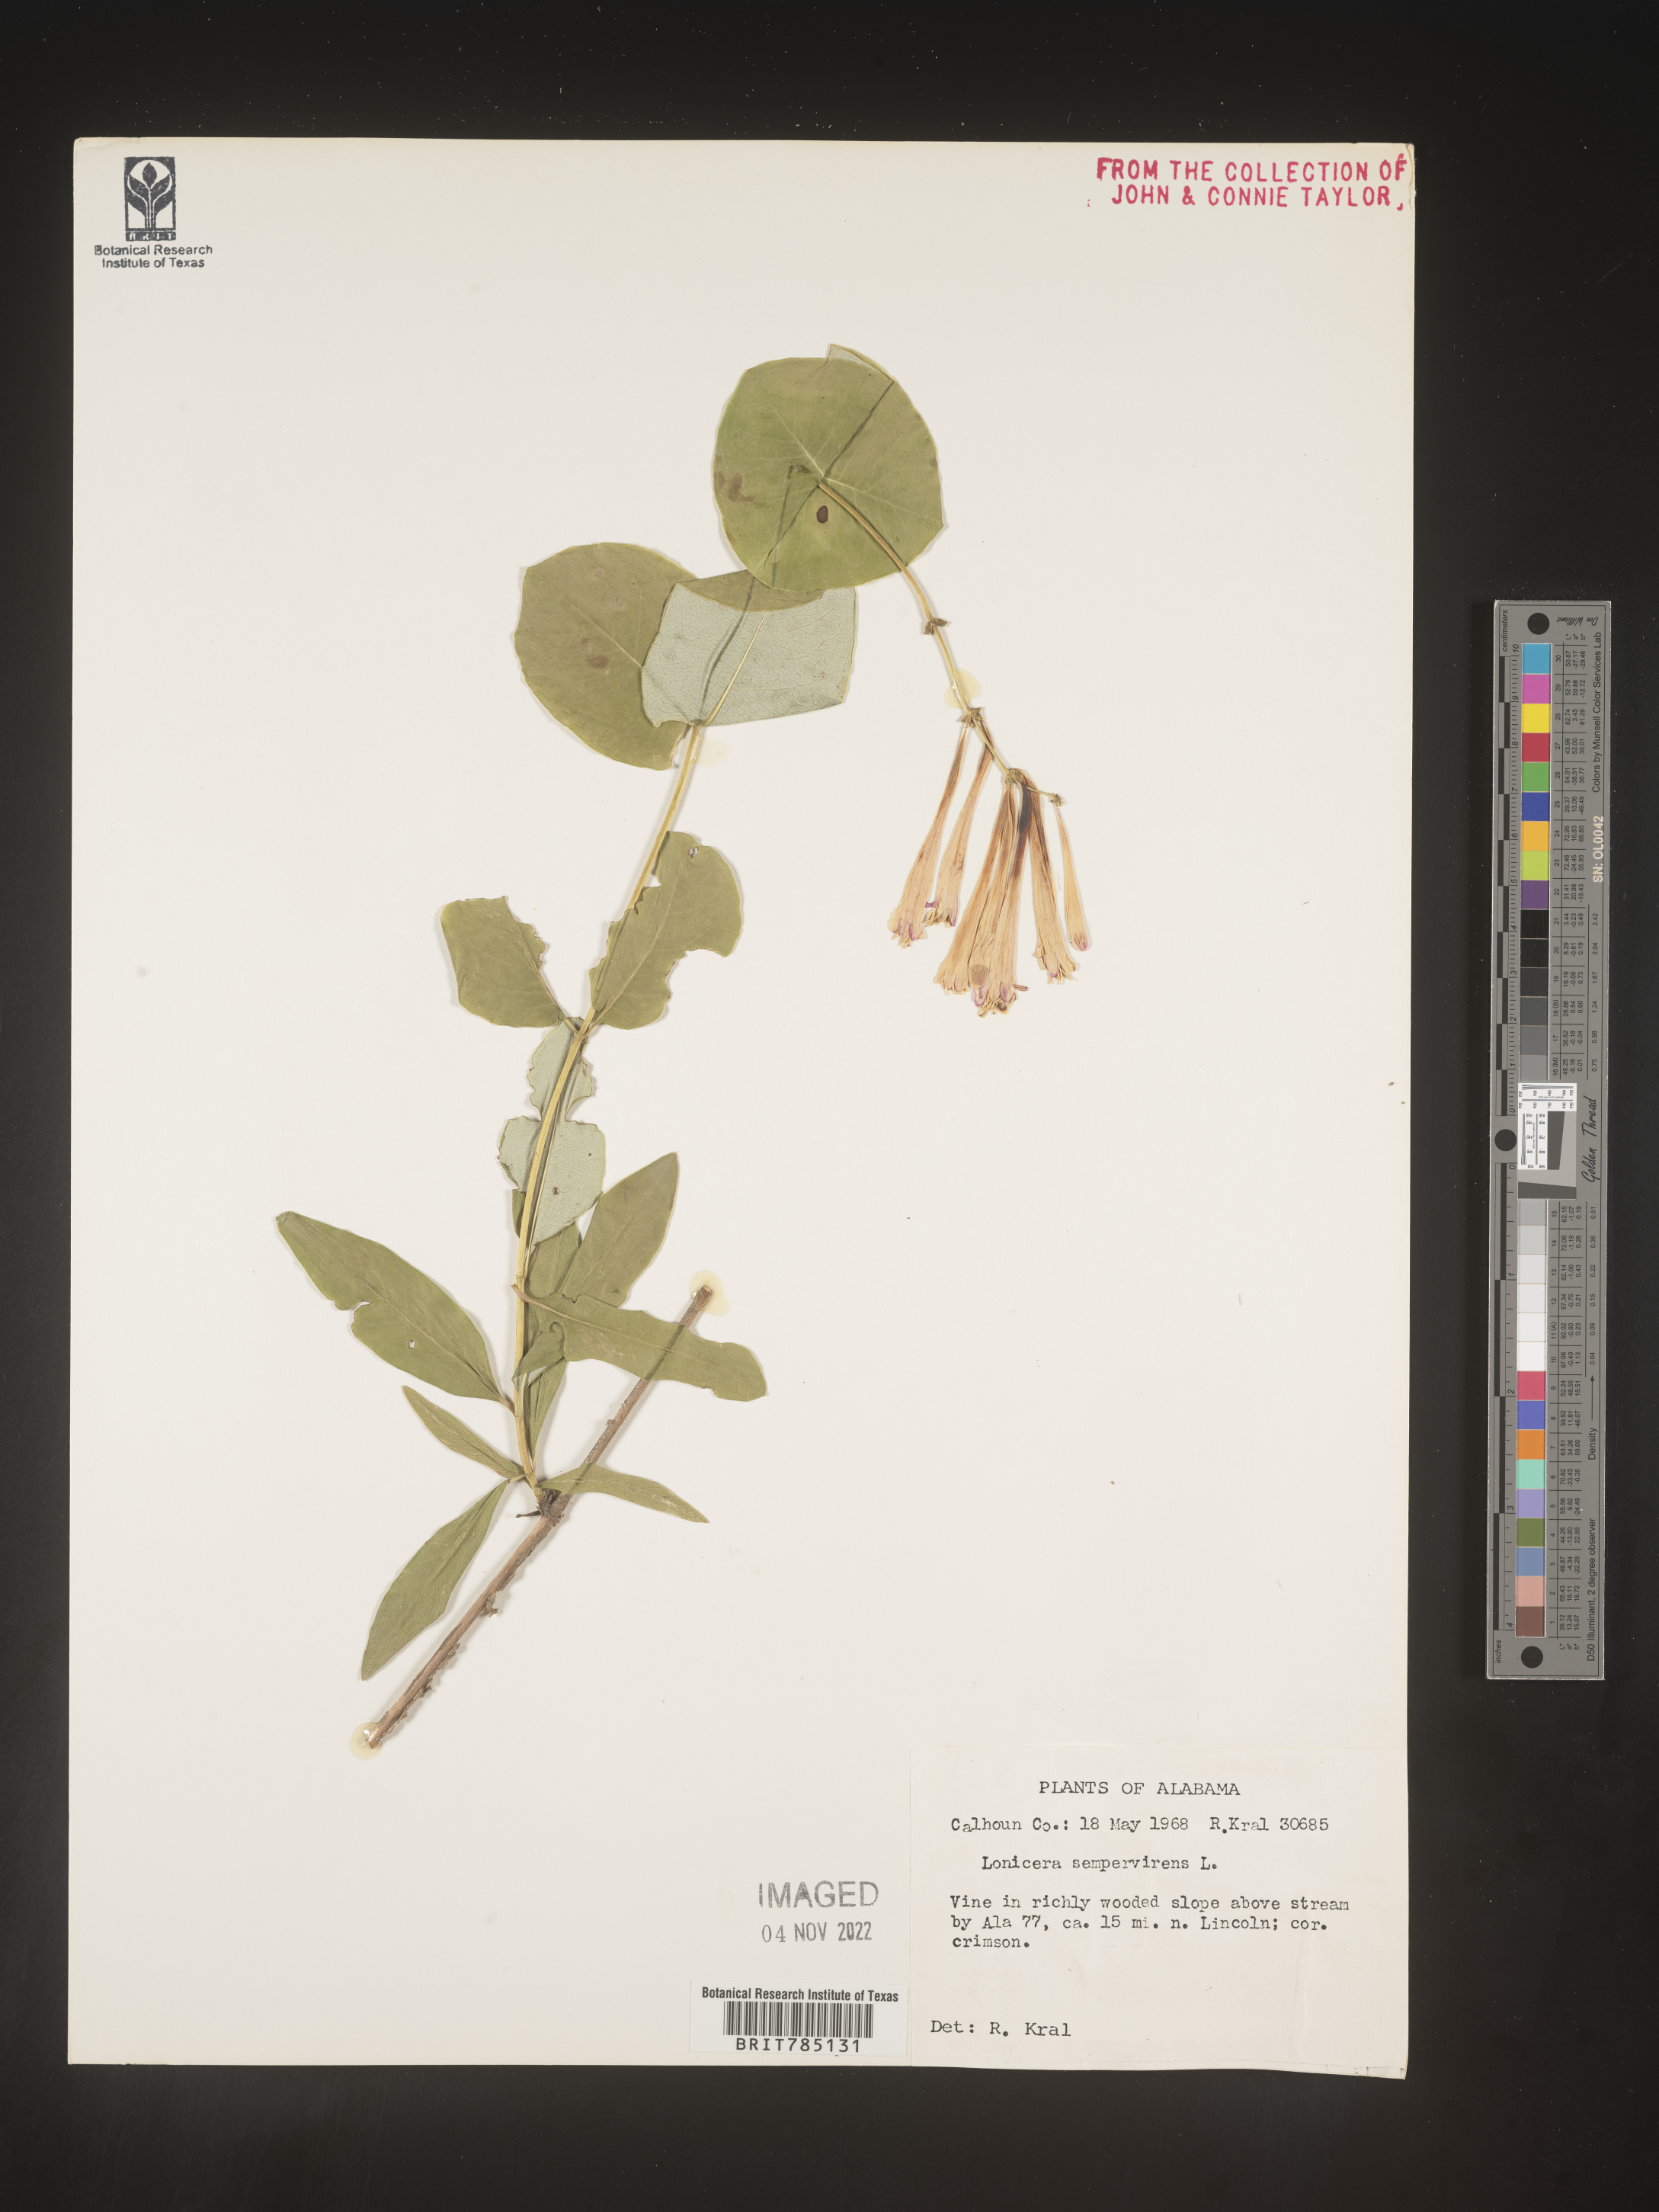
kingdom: Plantae
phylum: Tracheophyta
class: Magnoliopsida
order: Dipsacales
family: Caprifoliaceae
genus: Lonicera
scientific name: Lonicera sempervirens
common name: Coral honeysuckle
